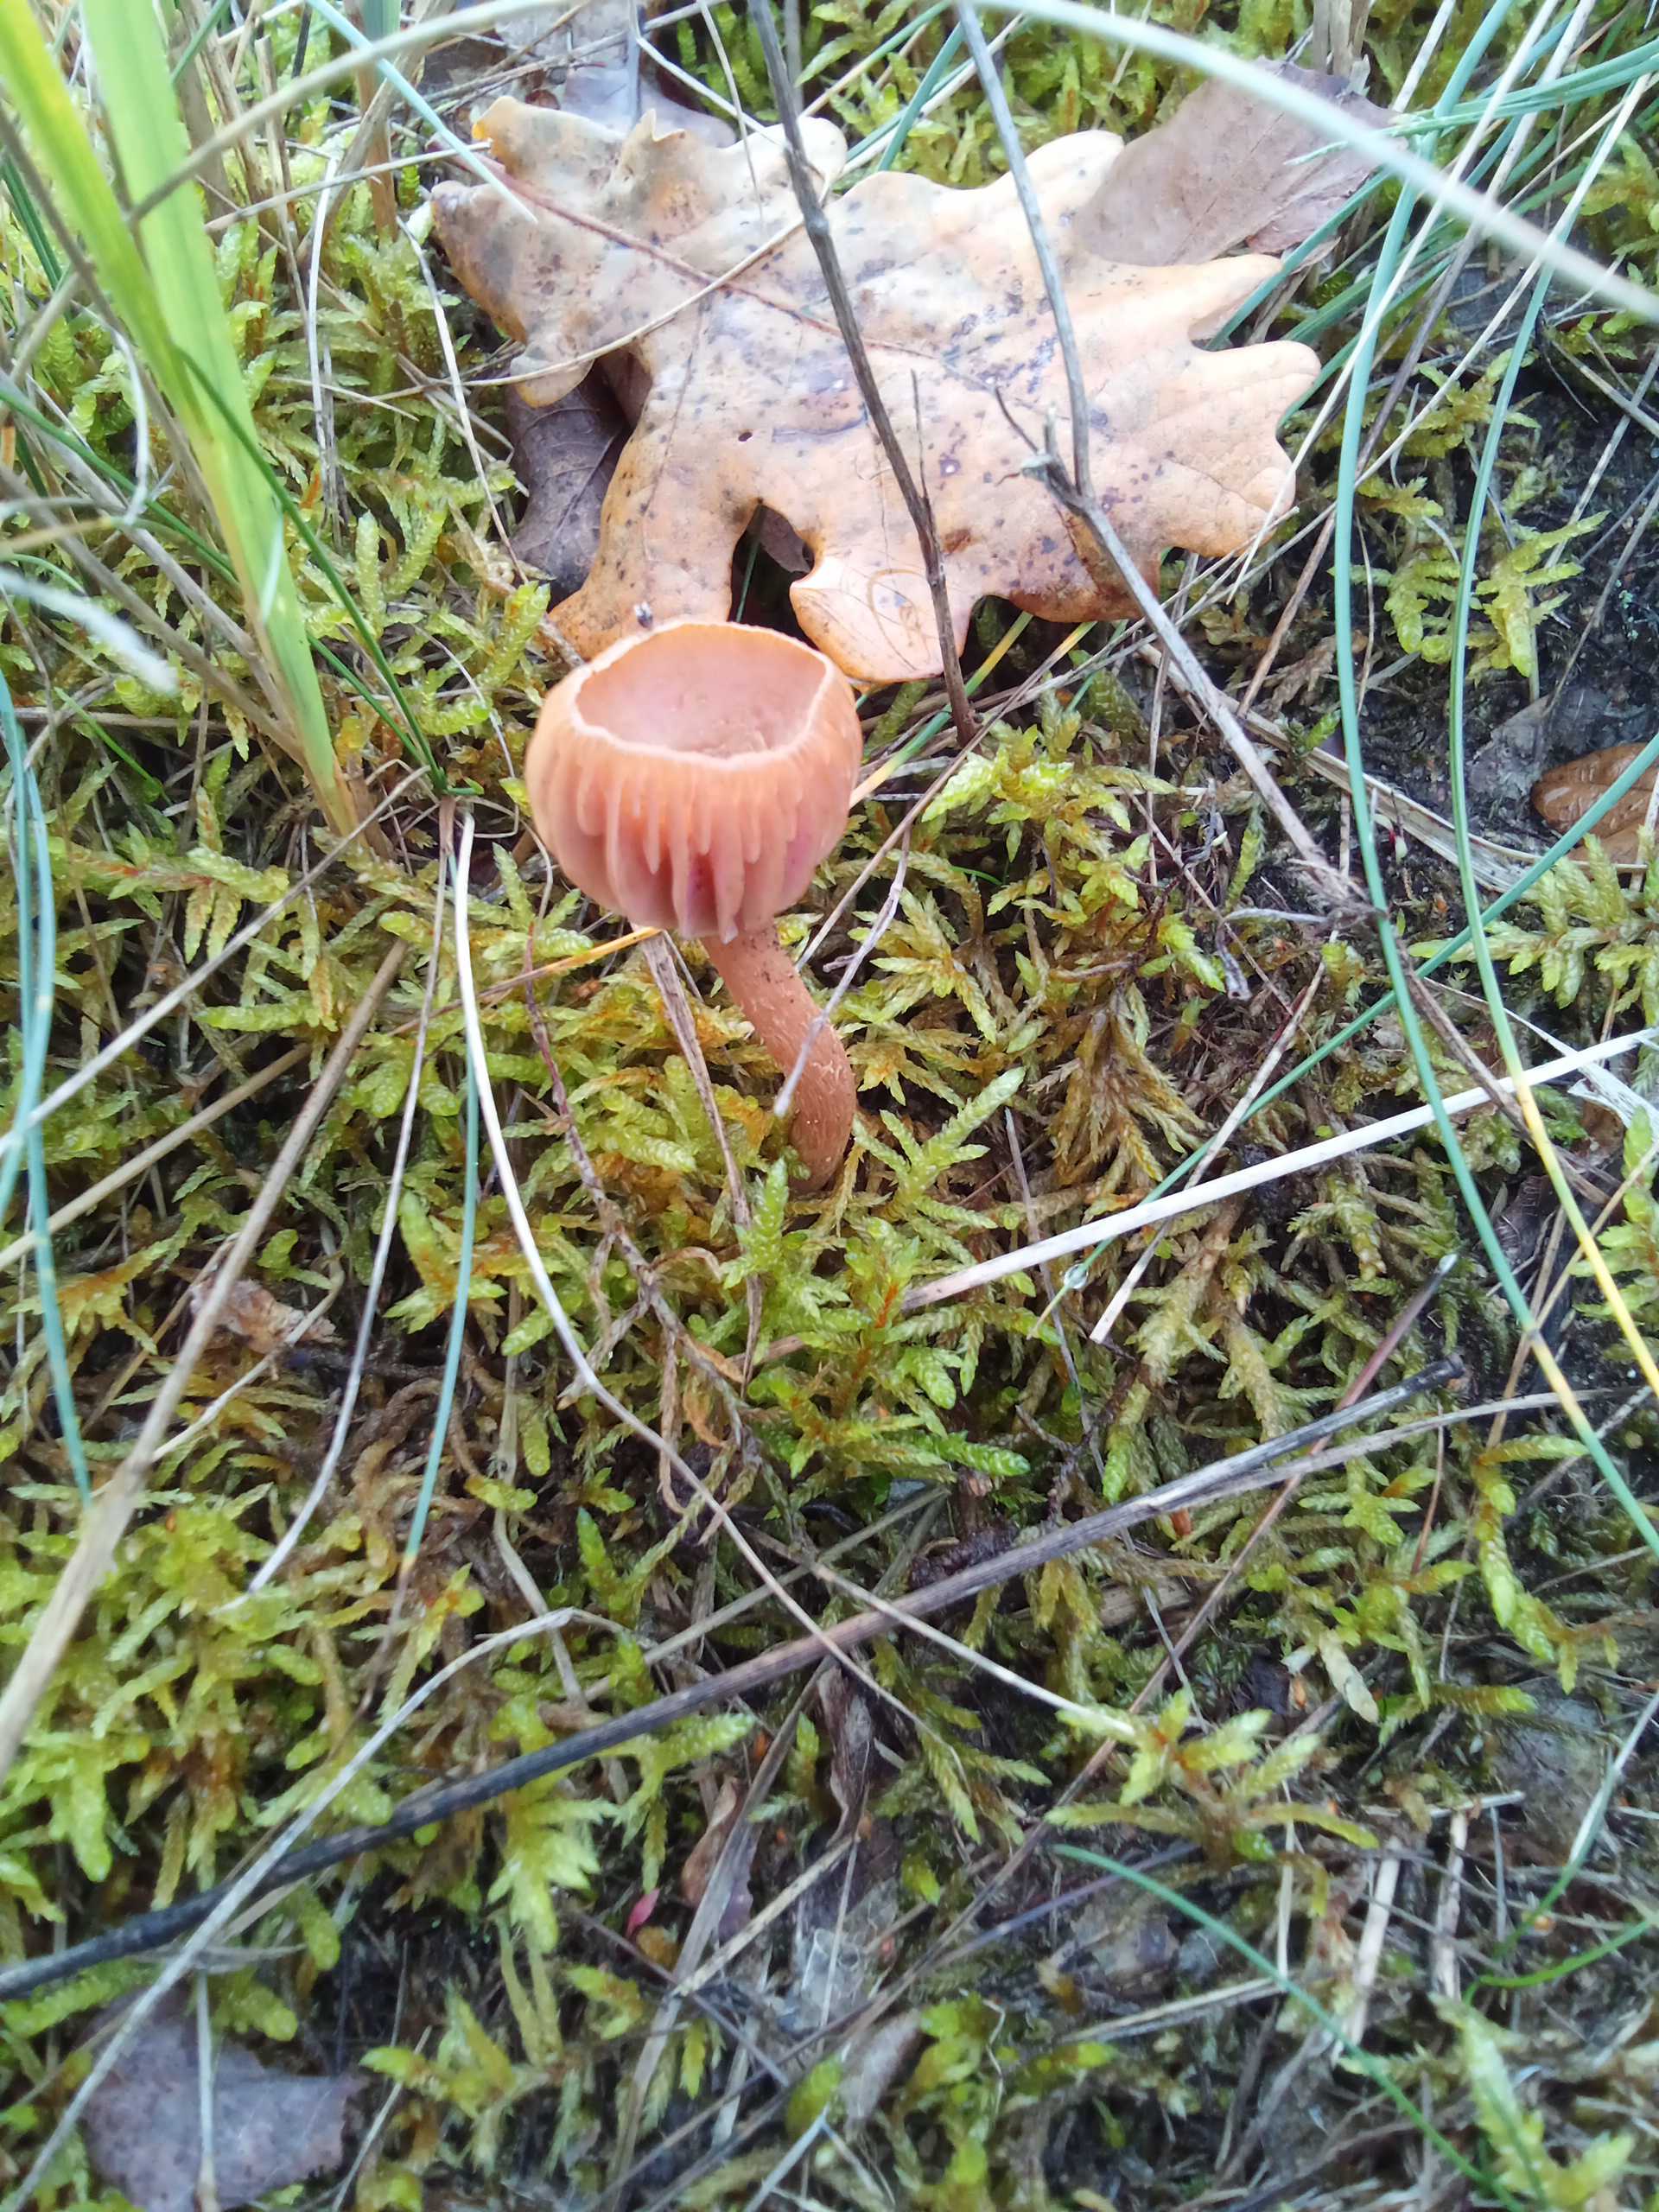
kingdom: Fungi
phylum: Basidiomycota
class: Agaricomycetes
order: Agaricales
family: Hydnangiaceae
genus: Laccaria
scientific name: Laccaria laccata
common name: rød ametysthat
